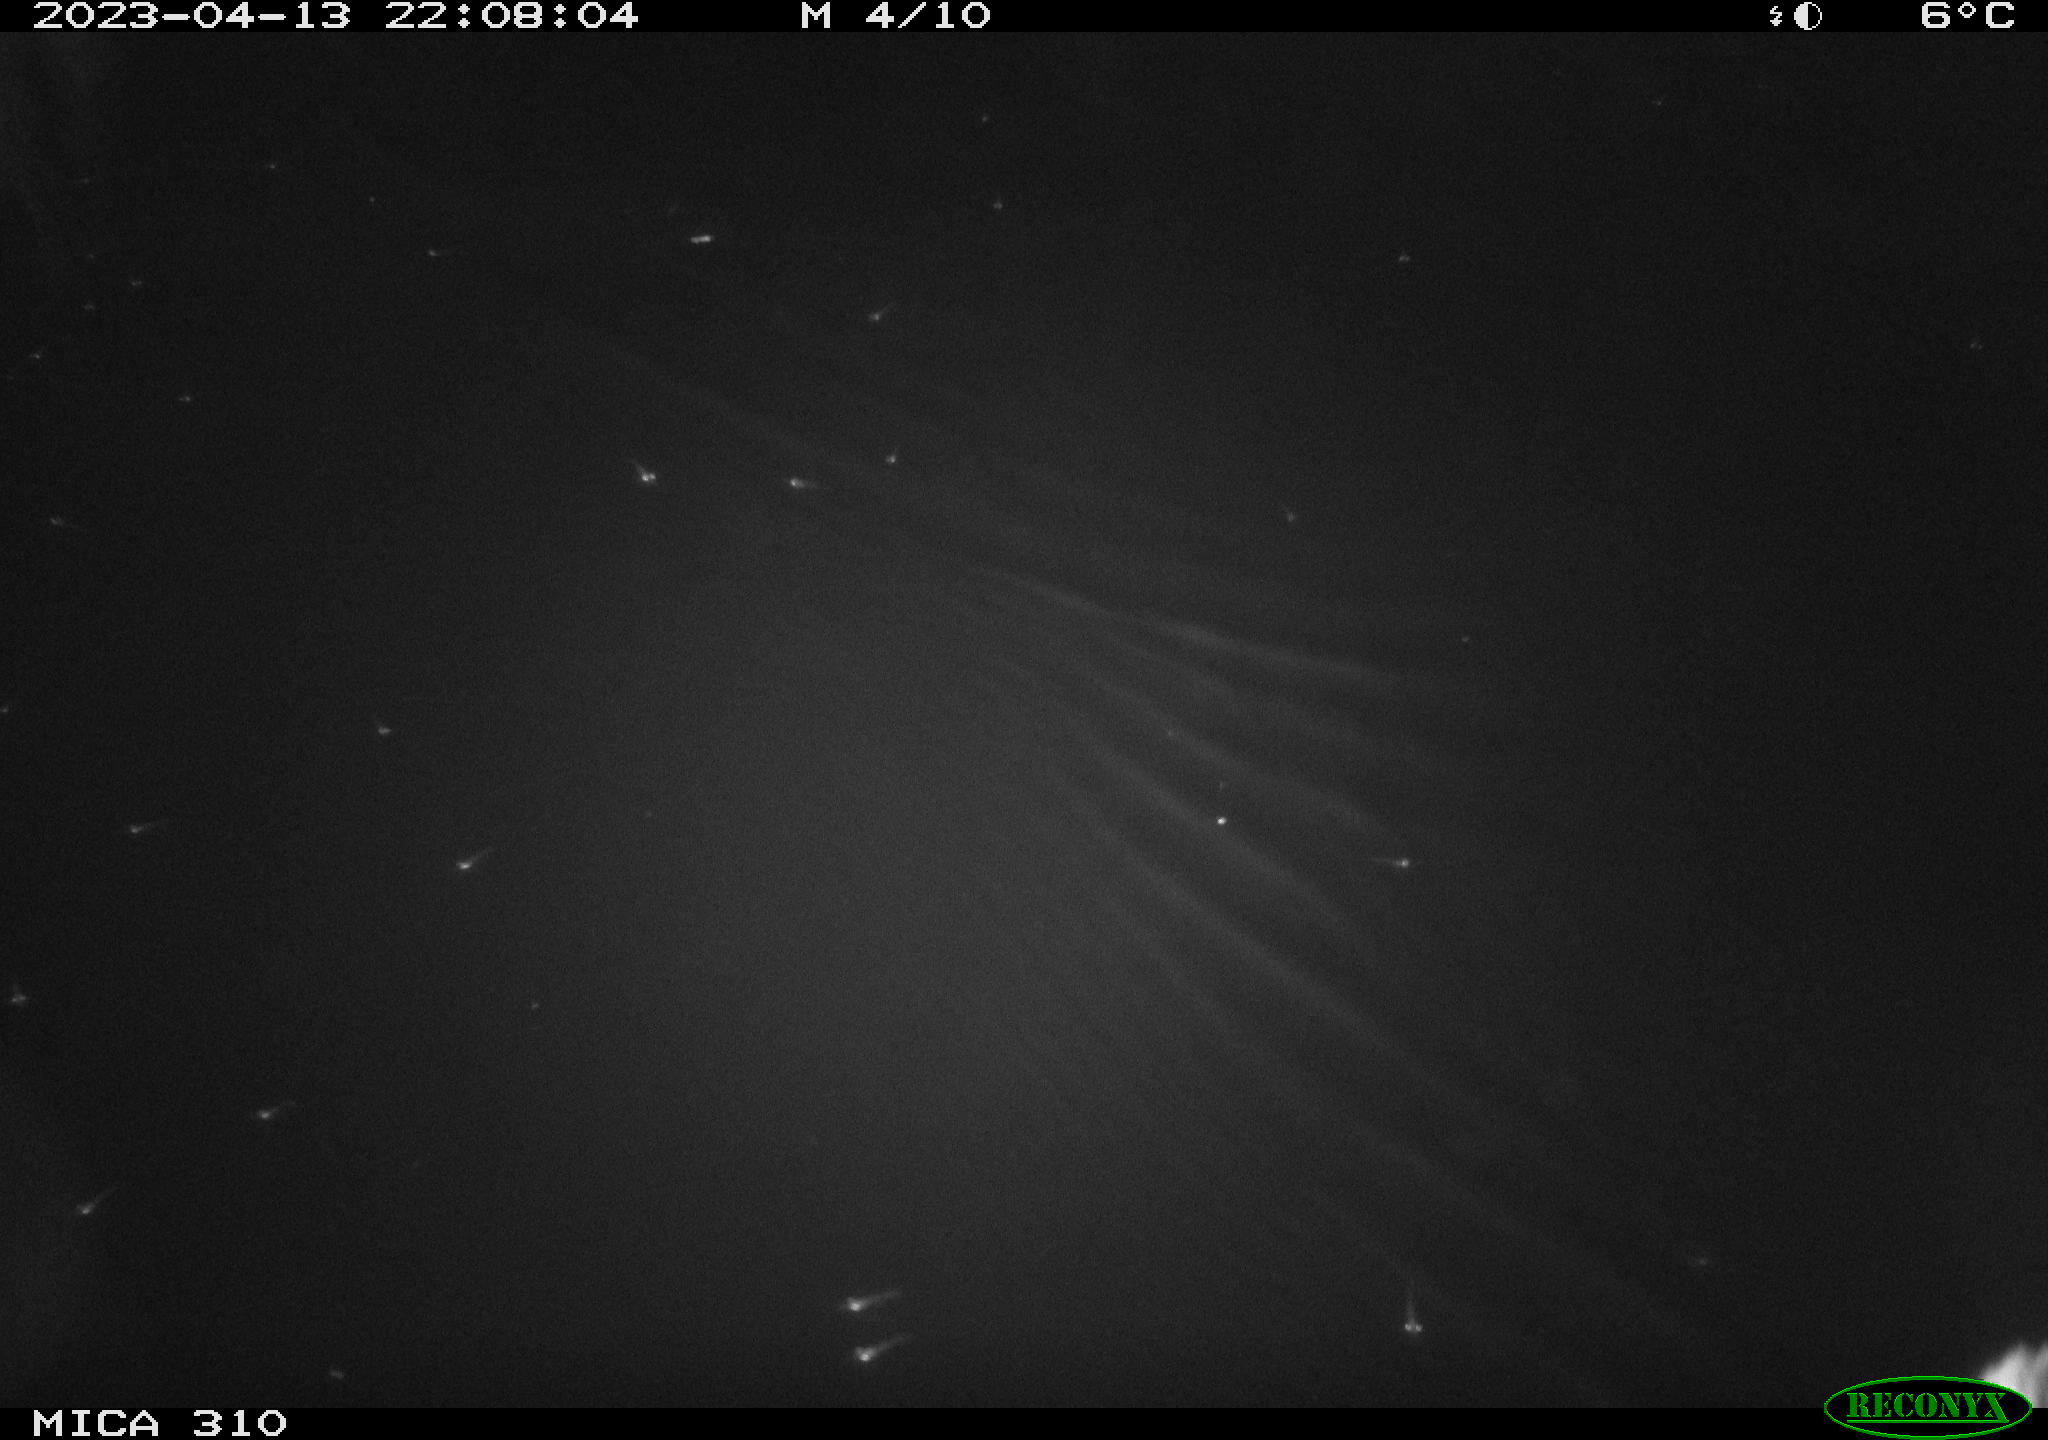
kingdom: Animalia
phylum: Chordata
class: Aves
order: Anseriformes
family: Anatidae
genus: Anas
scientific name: Anas
